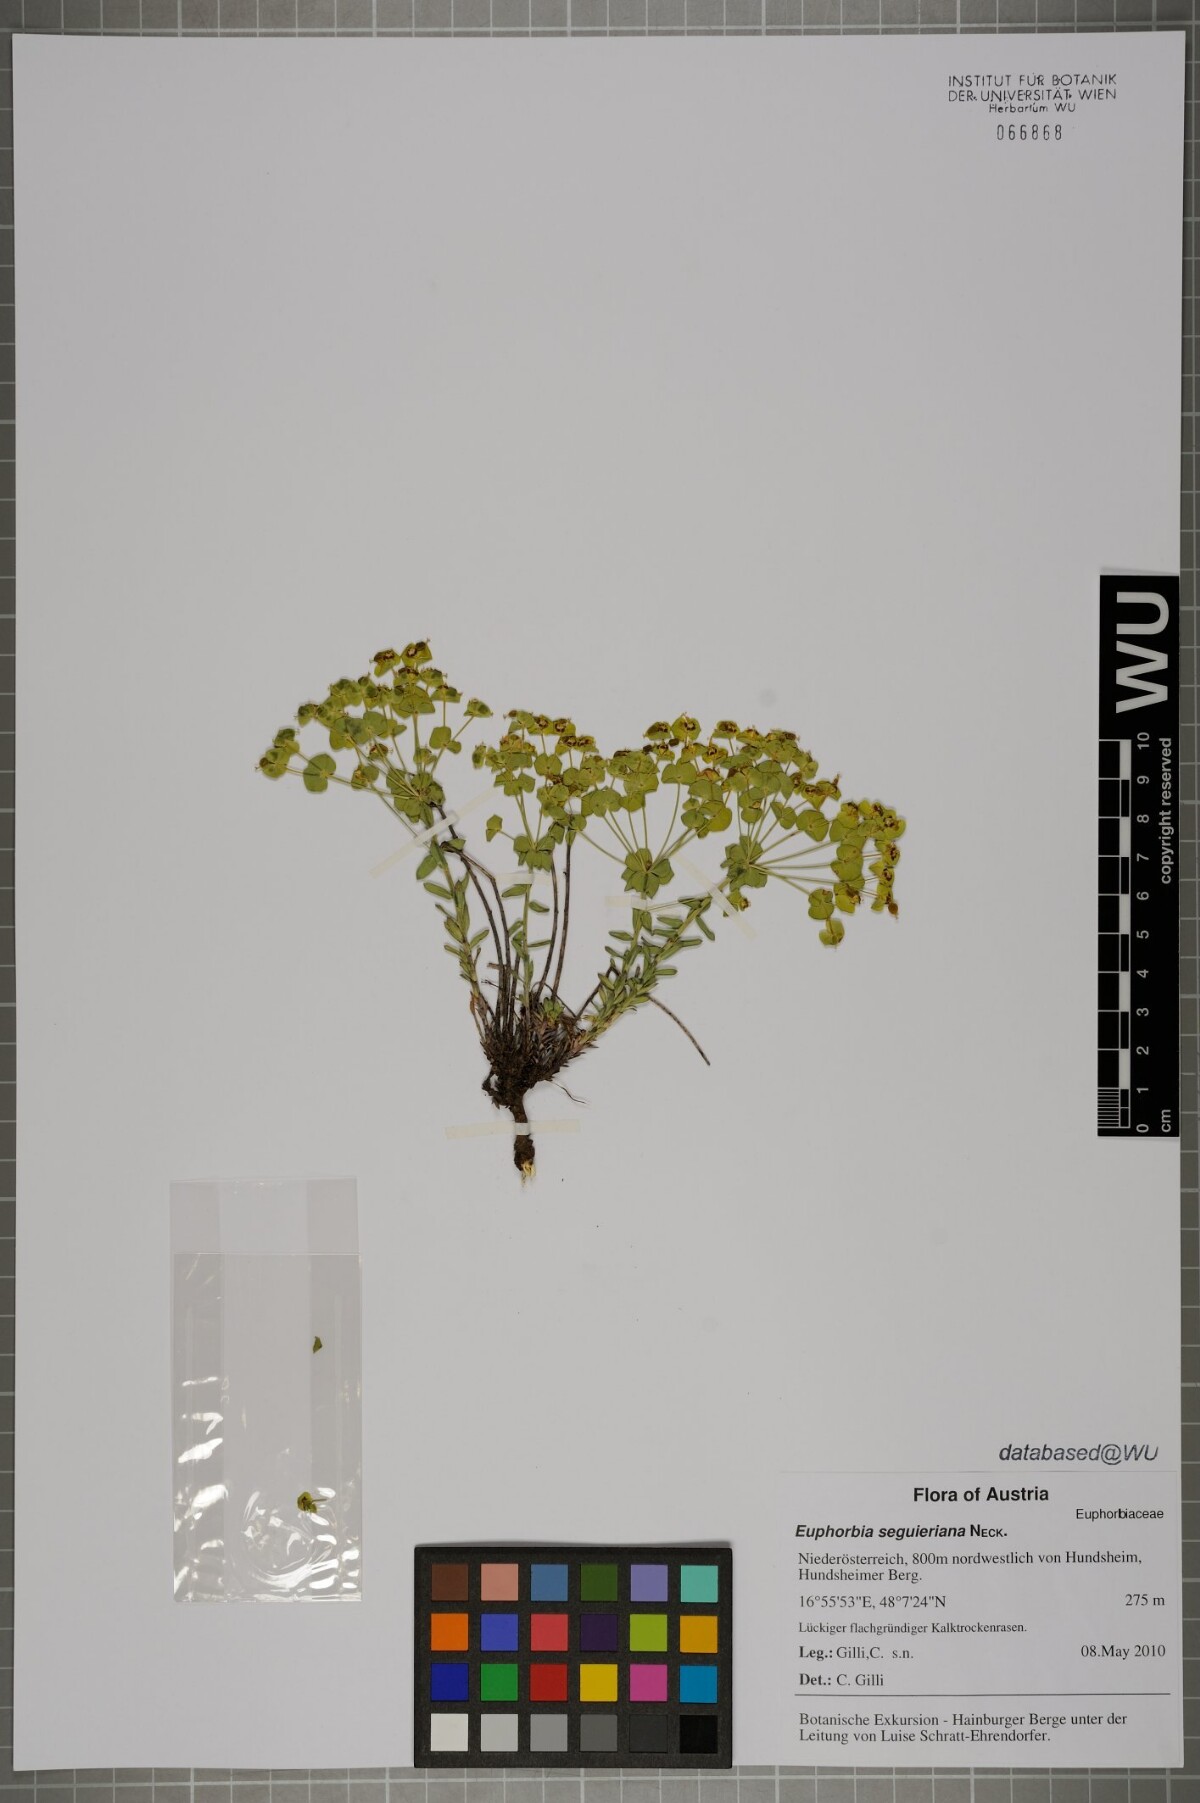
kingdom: Plantae
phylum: Tracheophyta
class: Magnoliopsida
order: Malpighiales
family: Euphorbiaceae
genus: Euphorbia
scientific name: Euphorbia seguieriana
